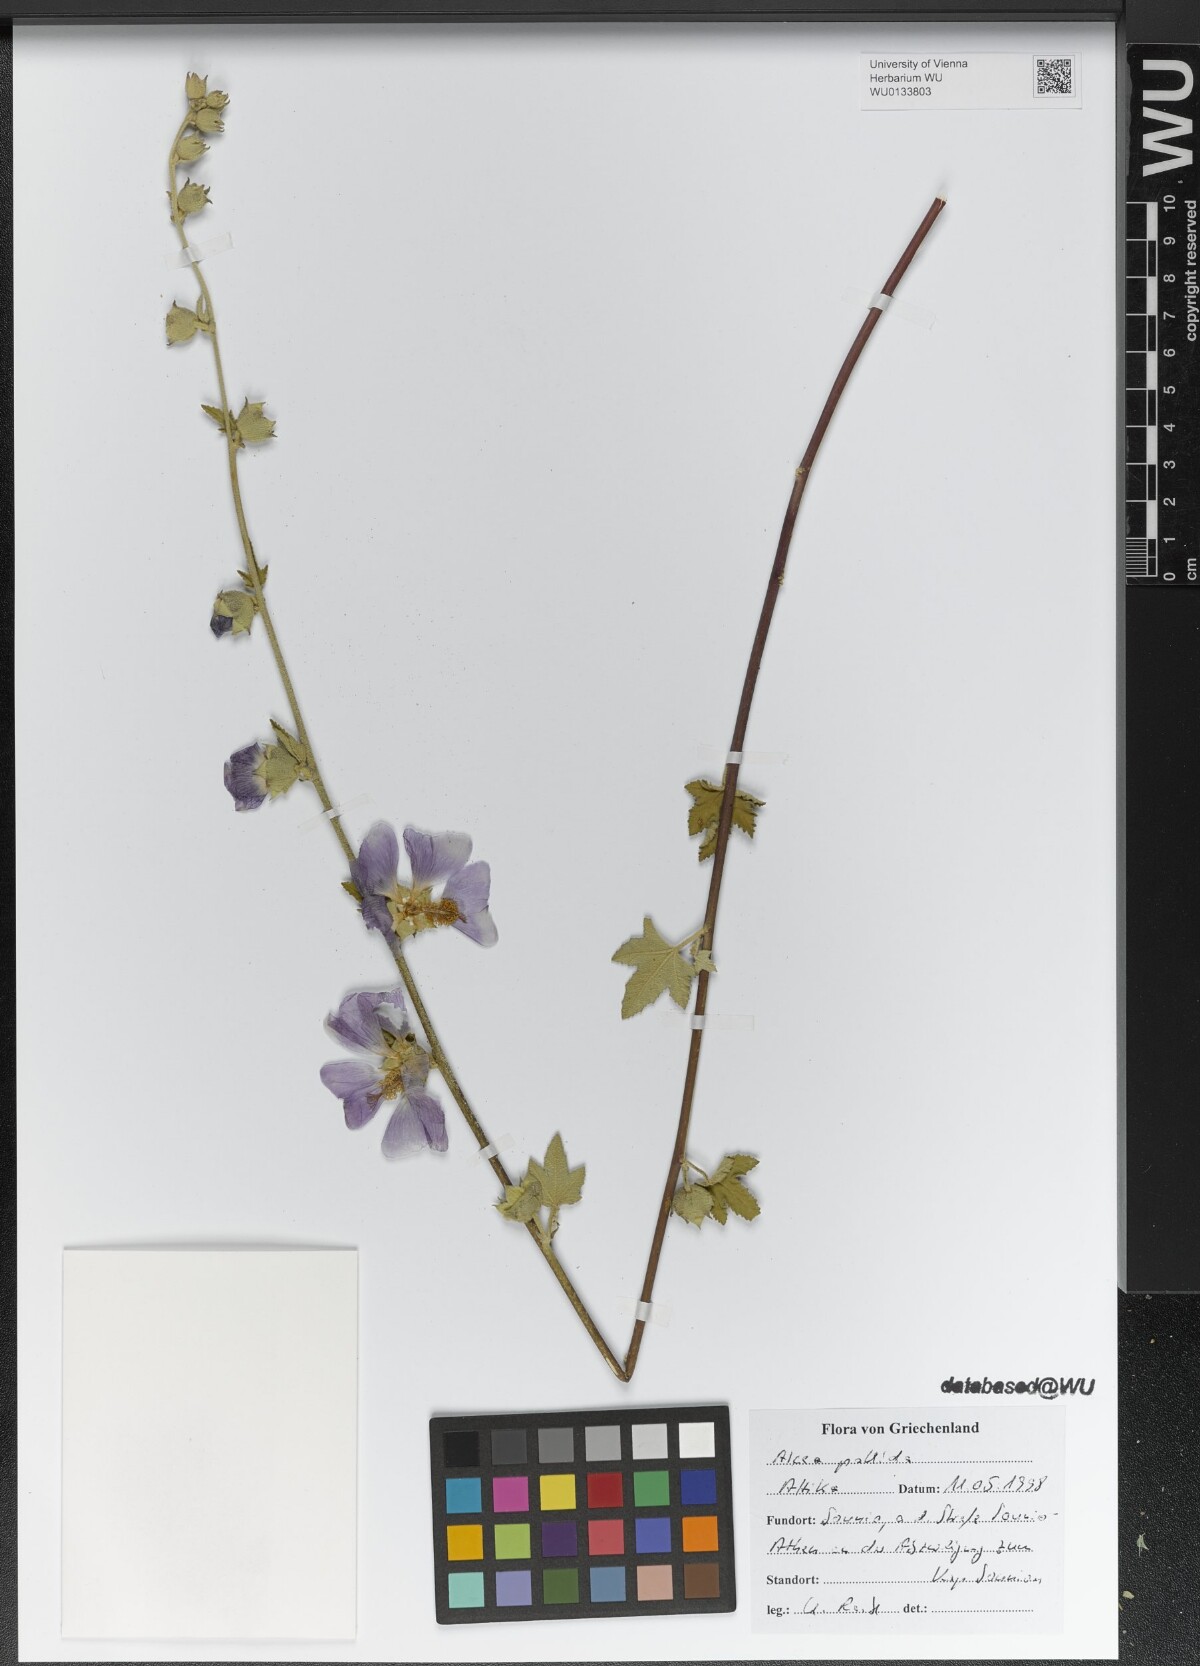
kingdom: Plantae
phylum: Tracheophyta
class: Magnoliopsida
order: Malvales
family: Malvaceae
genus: Alcea
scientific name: Alcea biennis
